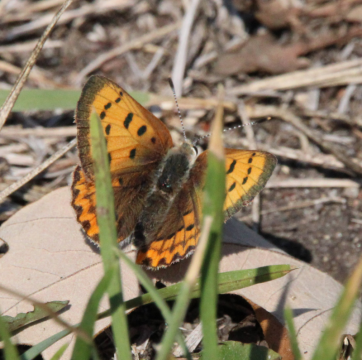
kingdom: Animalia
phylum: Arthropoda
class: Insecta
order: Lepidoptera
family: Sesiidae
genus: Sesia
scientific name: Sesia Lycaena helloides
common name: Purplish Copper
